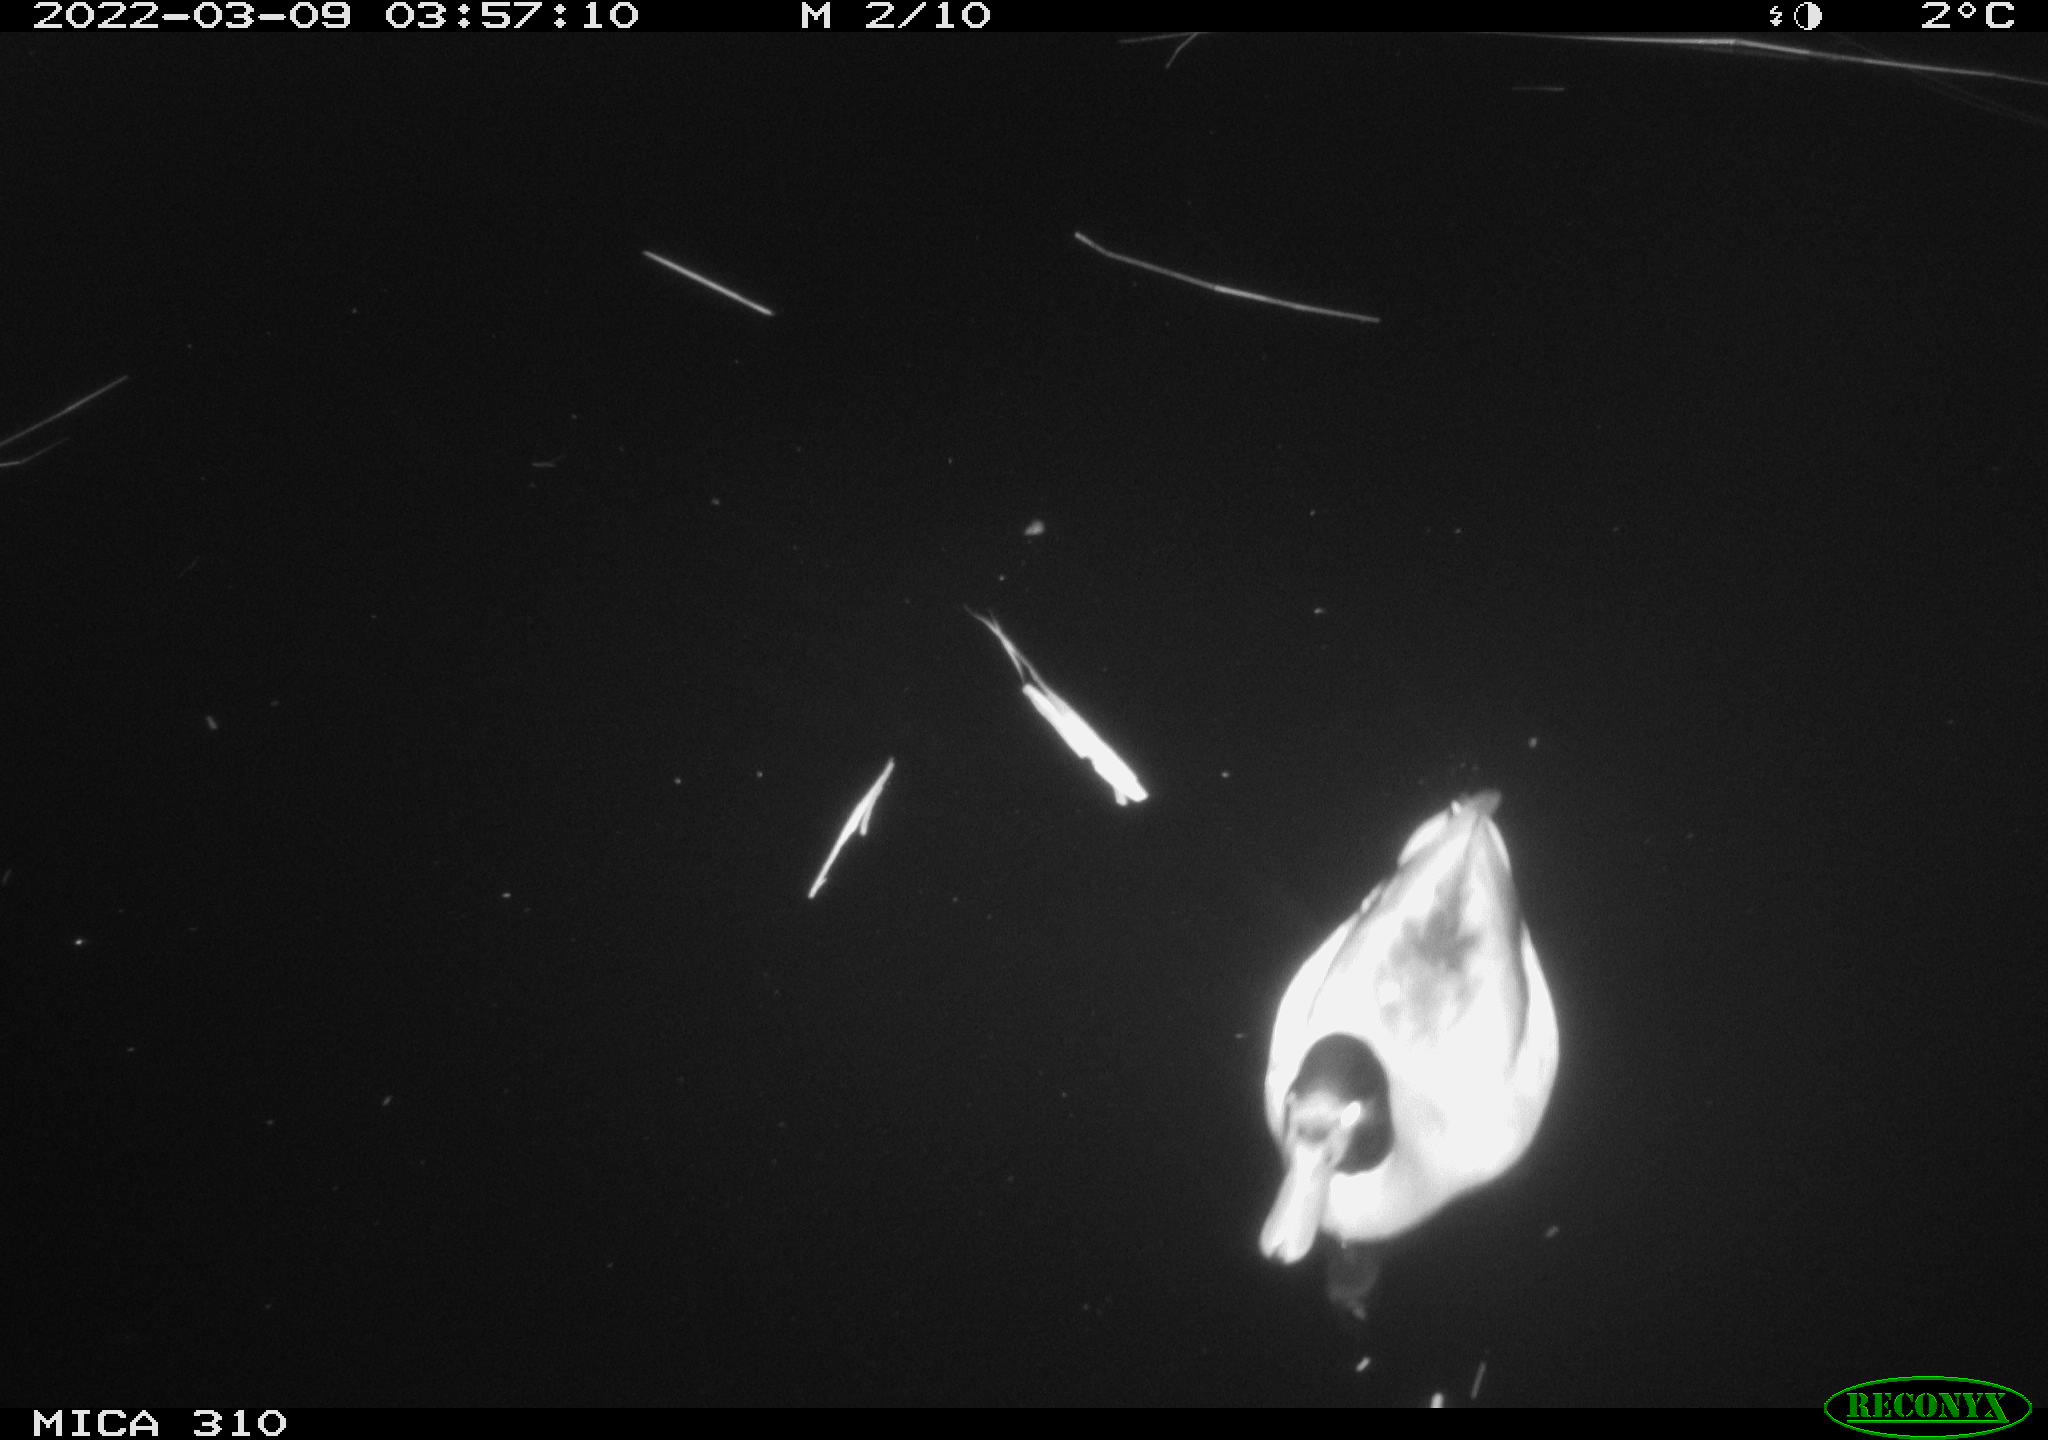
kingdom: Animalia
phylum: Chordata
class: Aves
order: Anseriformes
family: Anatidae
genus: Anas
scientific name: Anas platyrhynchos
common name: Mallard
